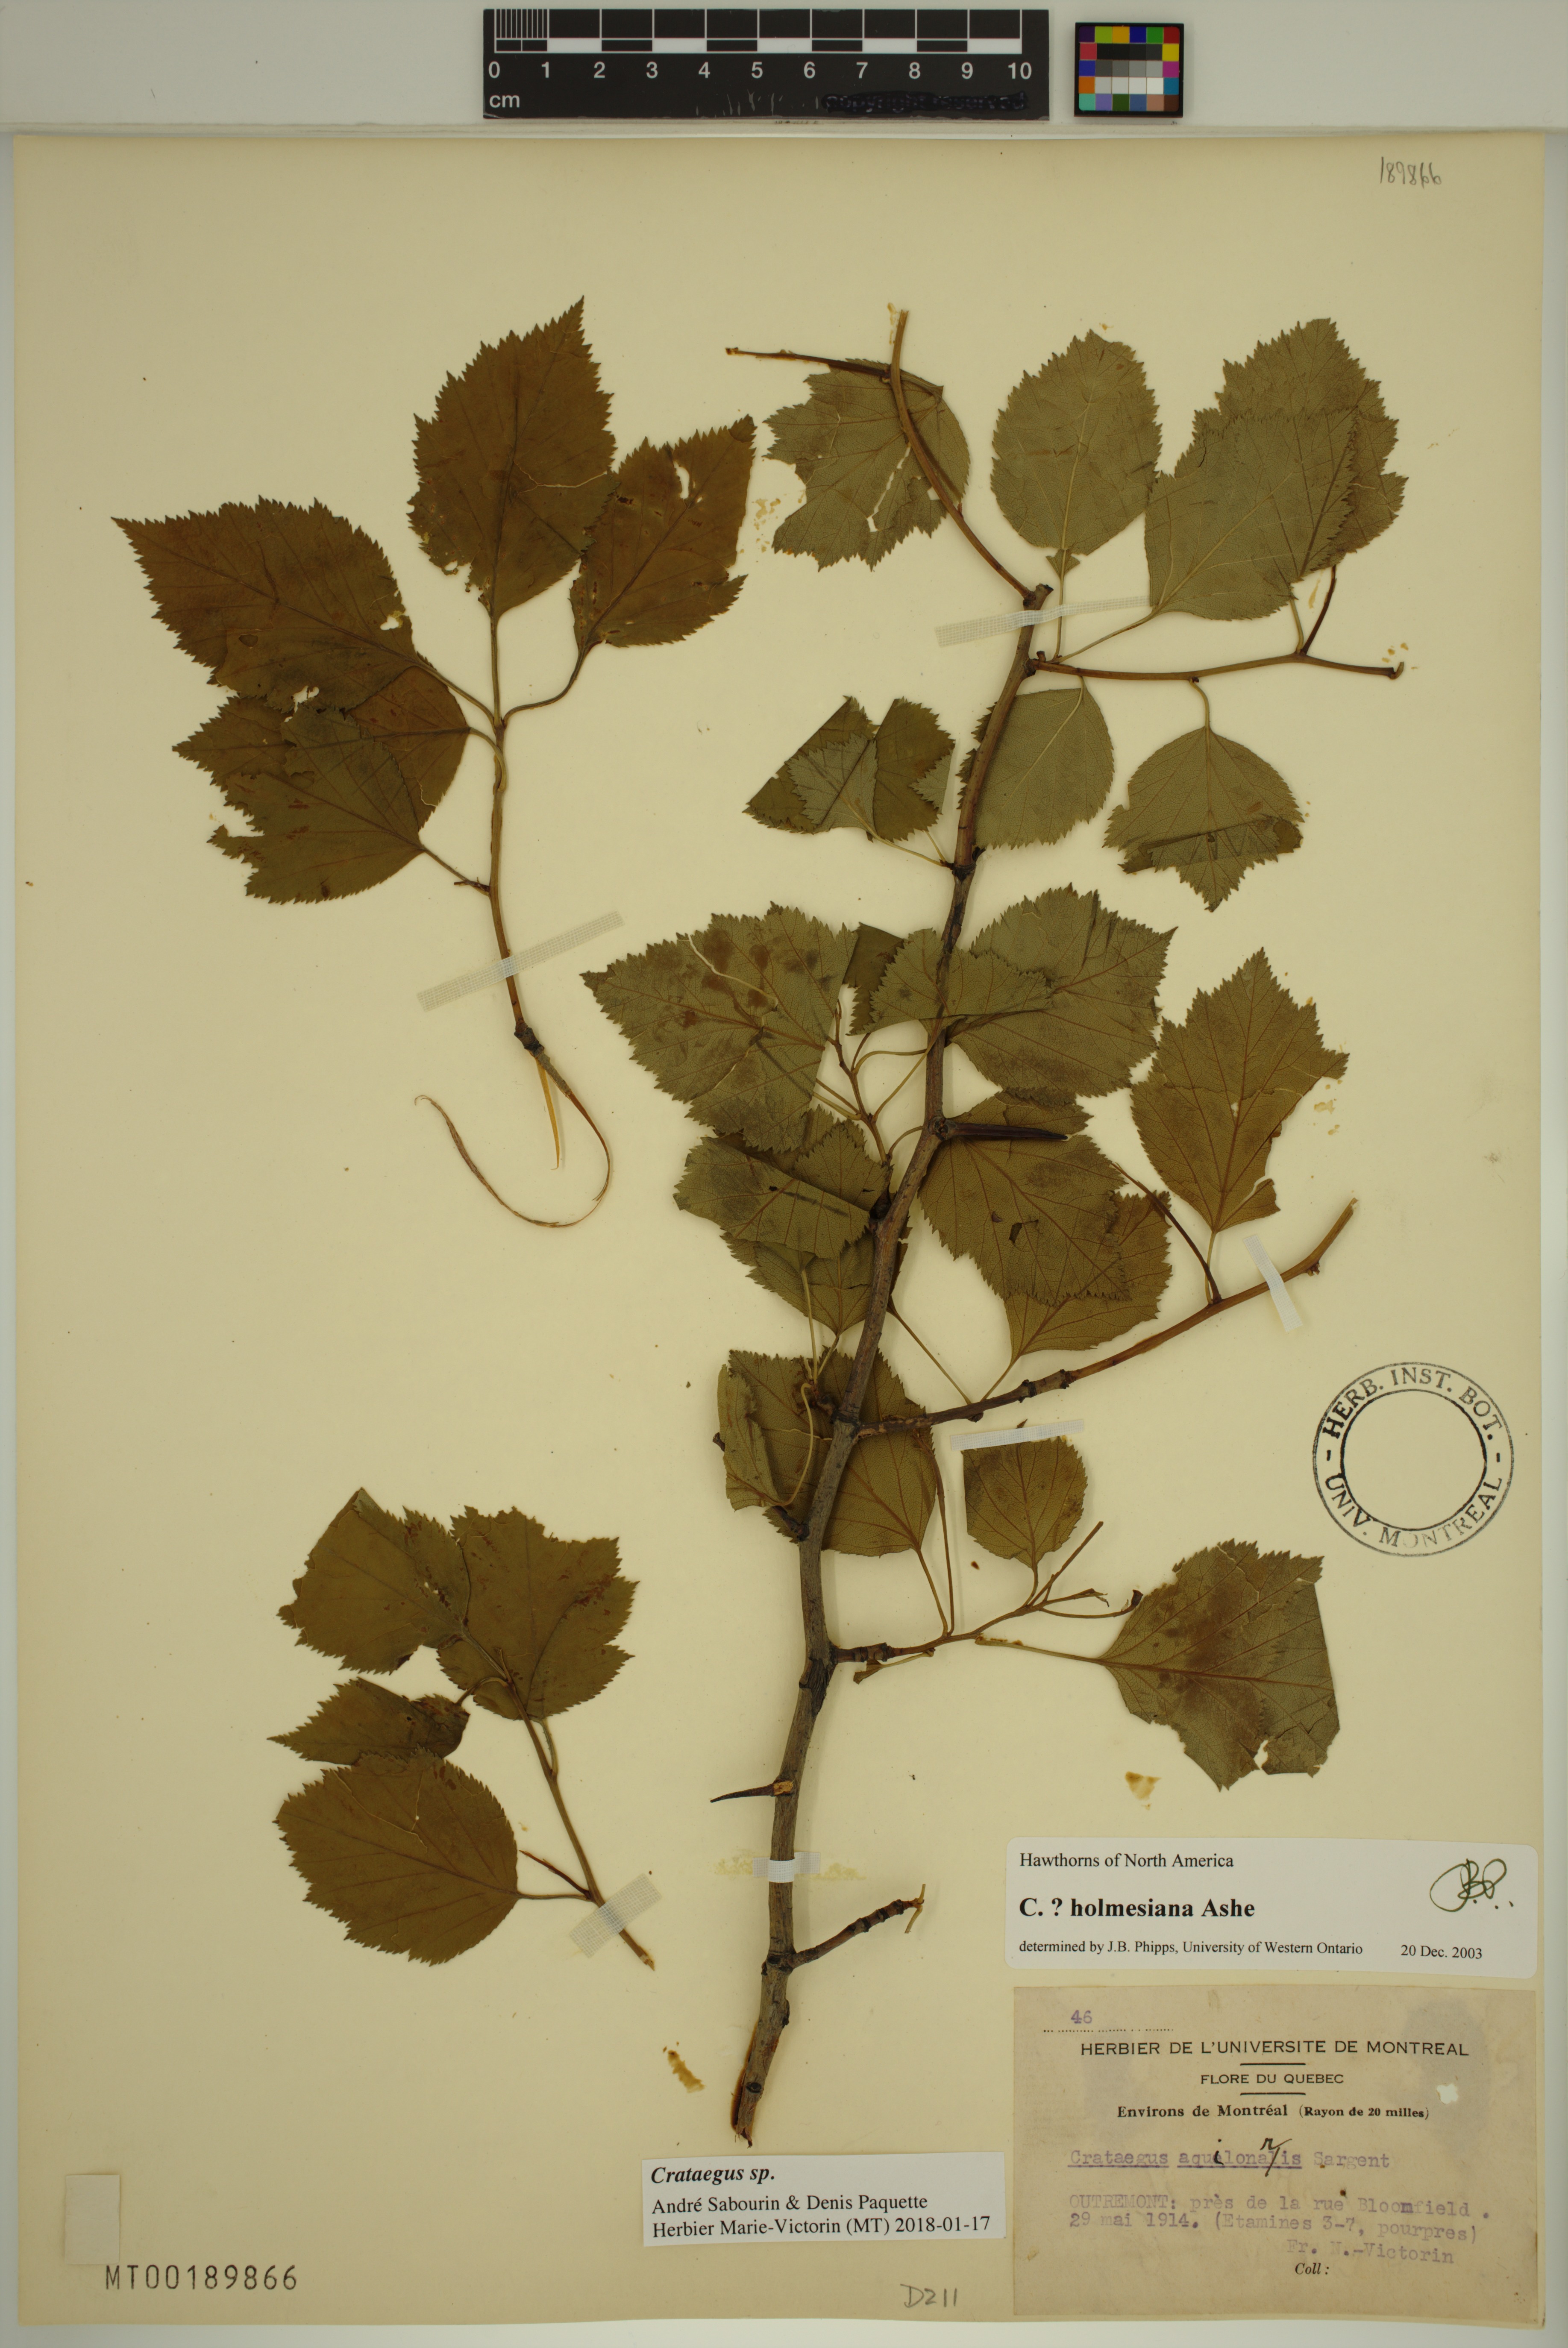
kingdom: Plantae
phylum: Tracheophyta
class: Magnoliopsida
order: Rosales
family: Rosaceae
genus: Crataegus
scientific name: Crataegus holmesiana
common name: Holmes' hawthorn
